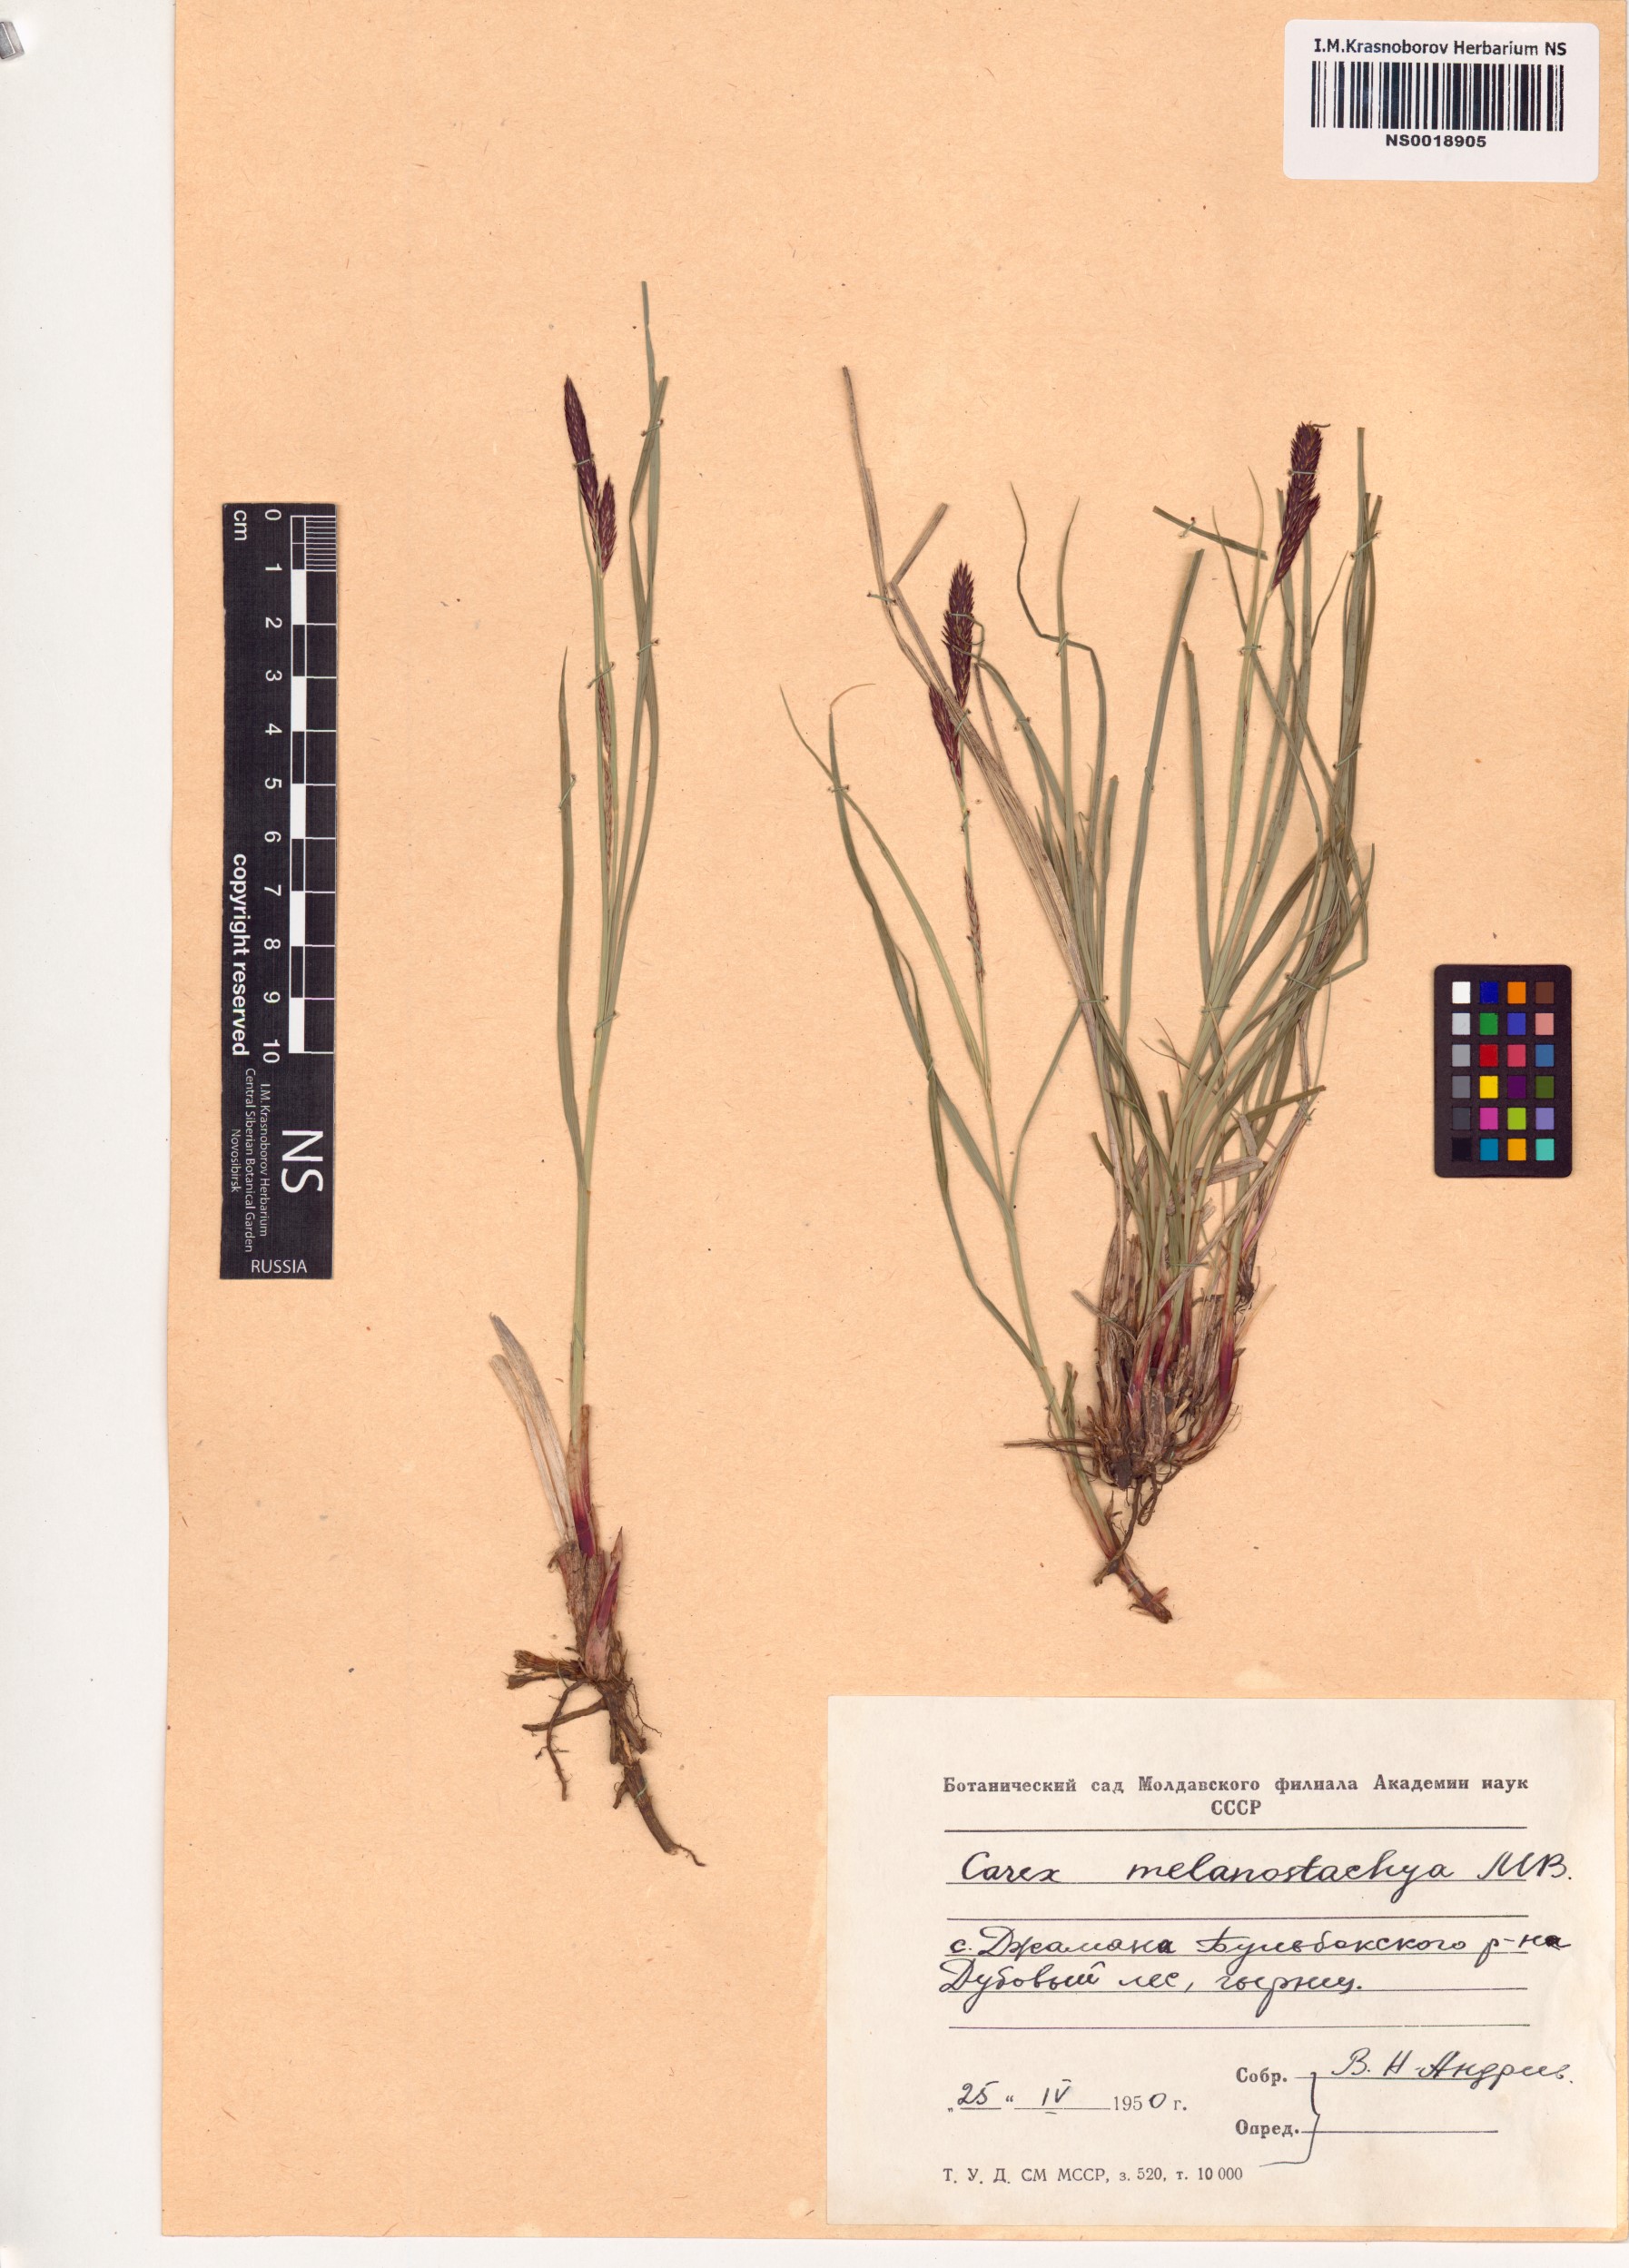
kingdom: Plantae
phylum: Tracheophyta
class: Liliopsida
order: Poales
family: Cyperaceae
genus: Carex
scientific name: Carex melanostachya
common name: Black-spiked sedge
